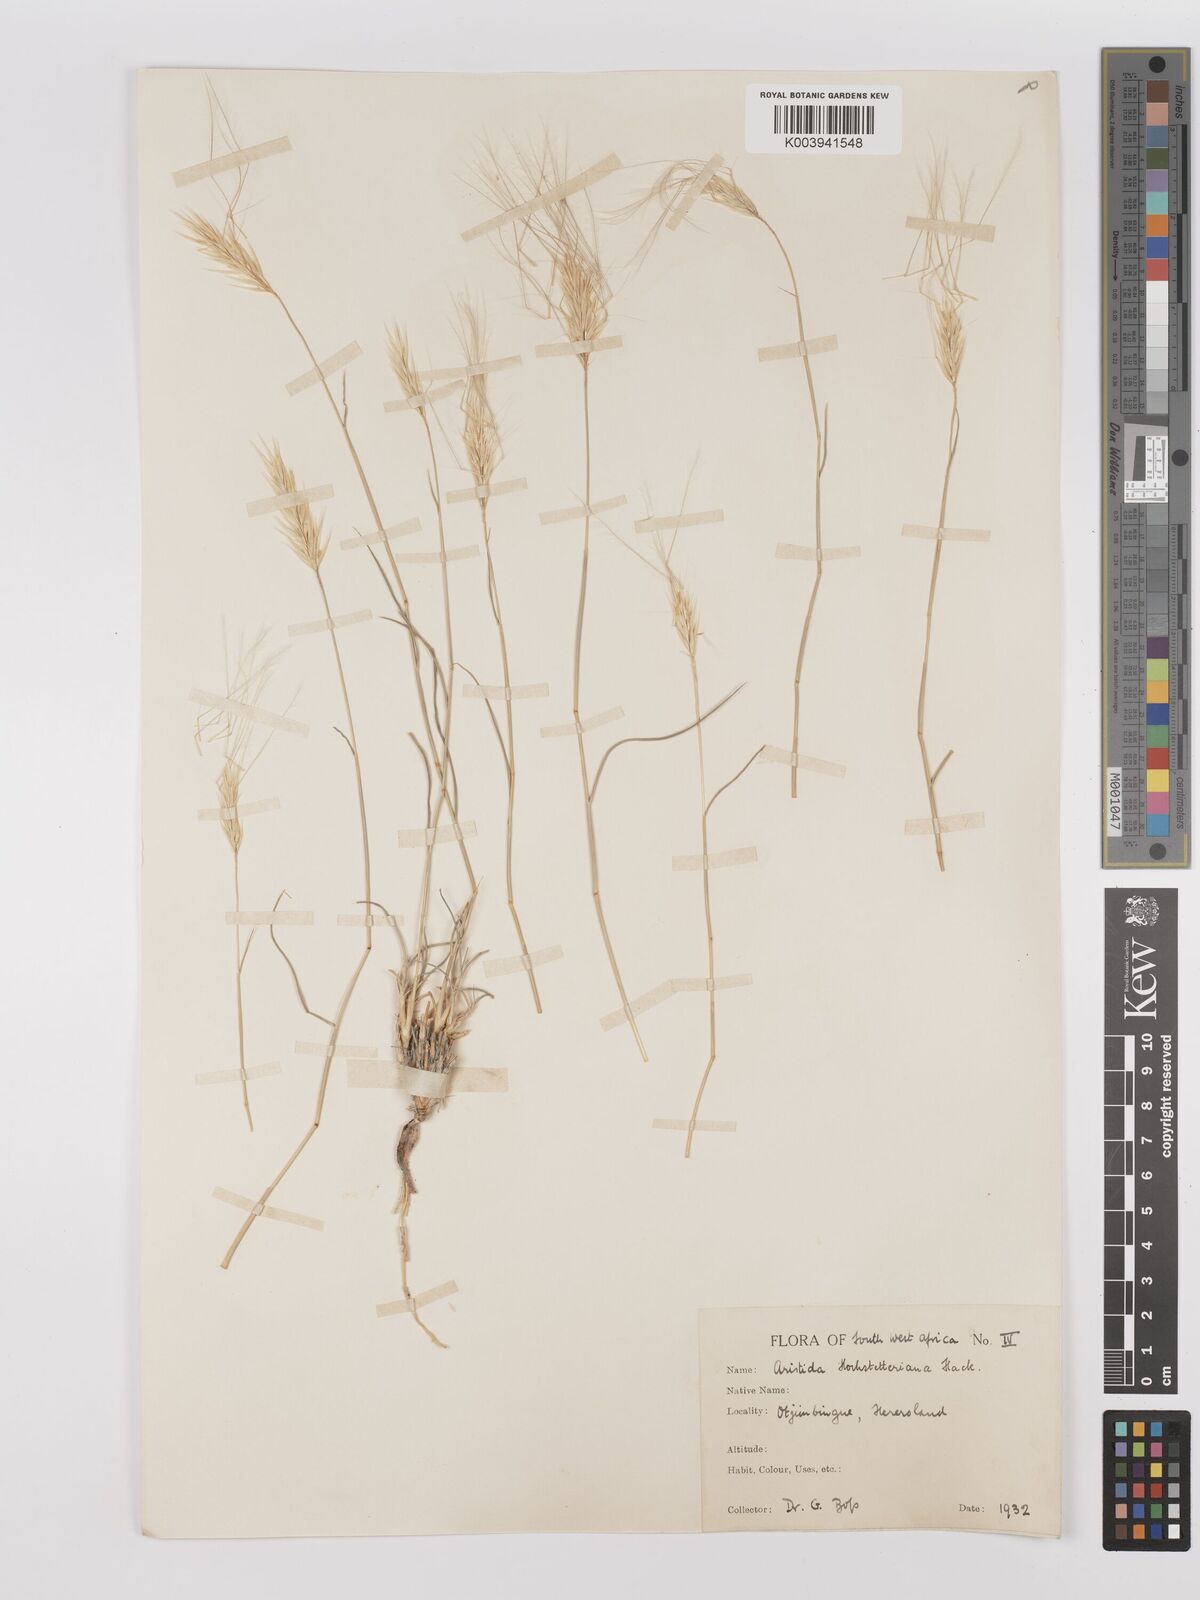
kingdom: Plantae
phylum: Tracheophyta
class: Liliopsida
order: Poales
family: Poaceae
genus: Stipagrostis
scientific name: Stipagrostis hochstetteriana
